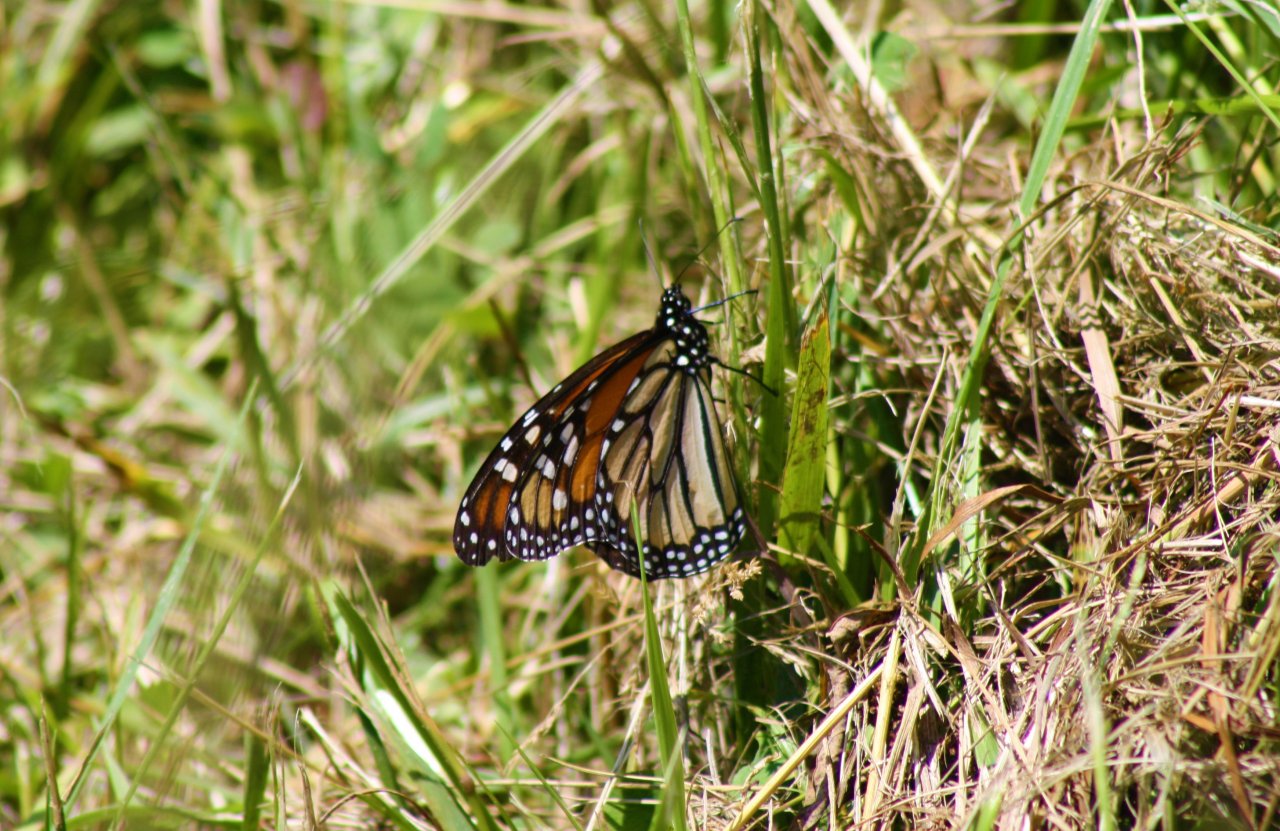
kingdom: Animalia
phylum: Arthropoda
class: Insecta
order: Lepidoptera
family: Nymphalidae
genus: Danaus
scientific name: Danaus plexippus
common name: Monarch
